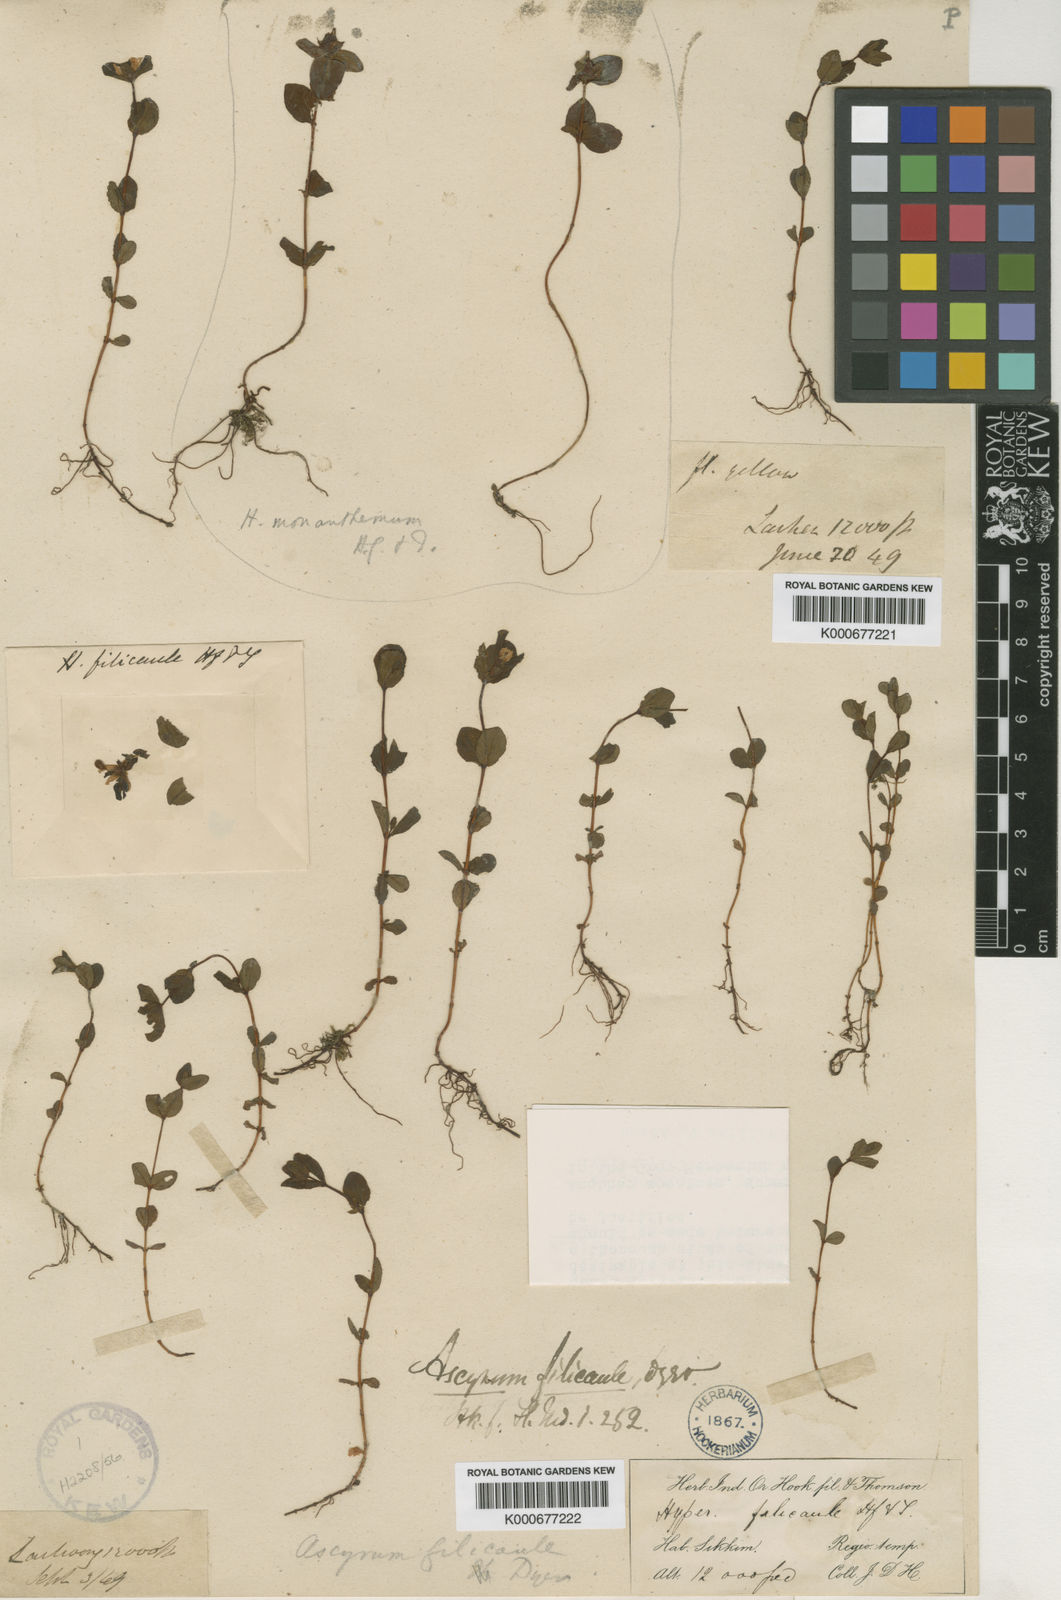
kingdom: Plantae
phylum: Tracheophyta
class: Magnoliopsida
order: Malpighiales
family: Hypericaceae
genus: Hypericum
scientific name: Hypericum monanthemum
